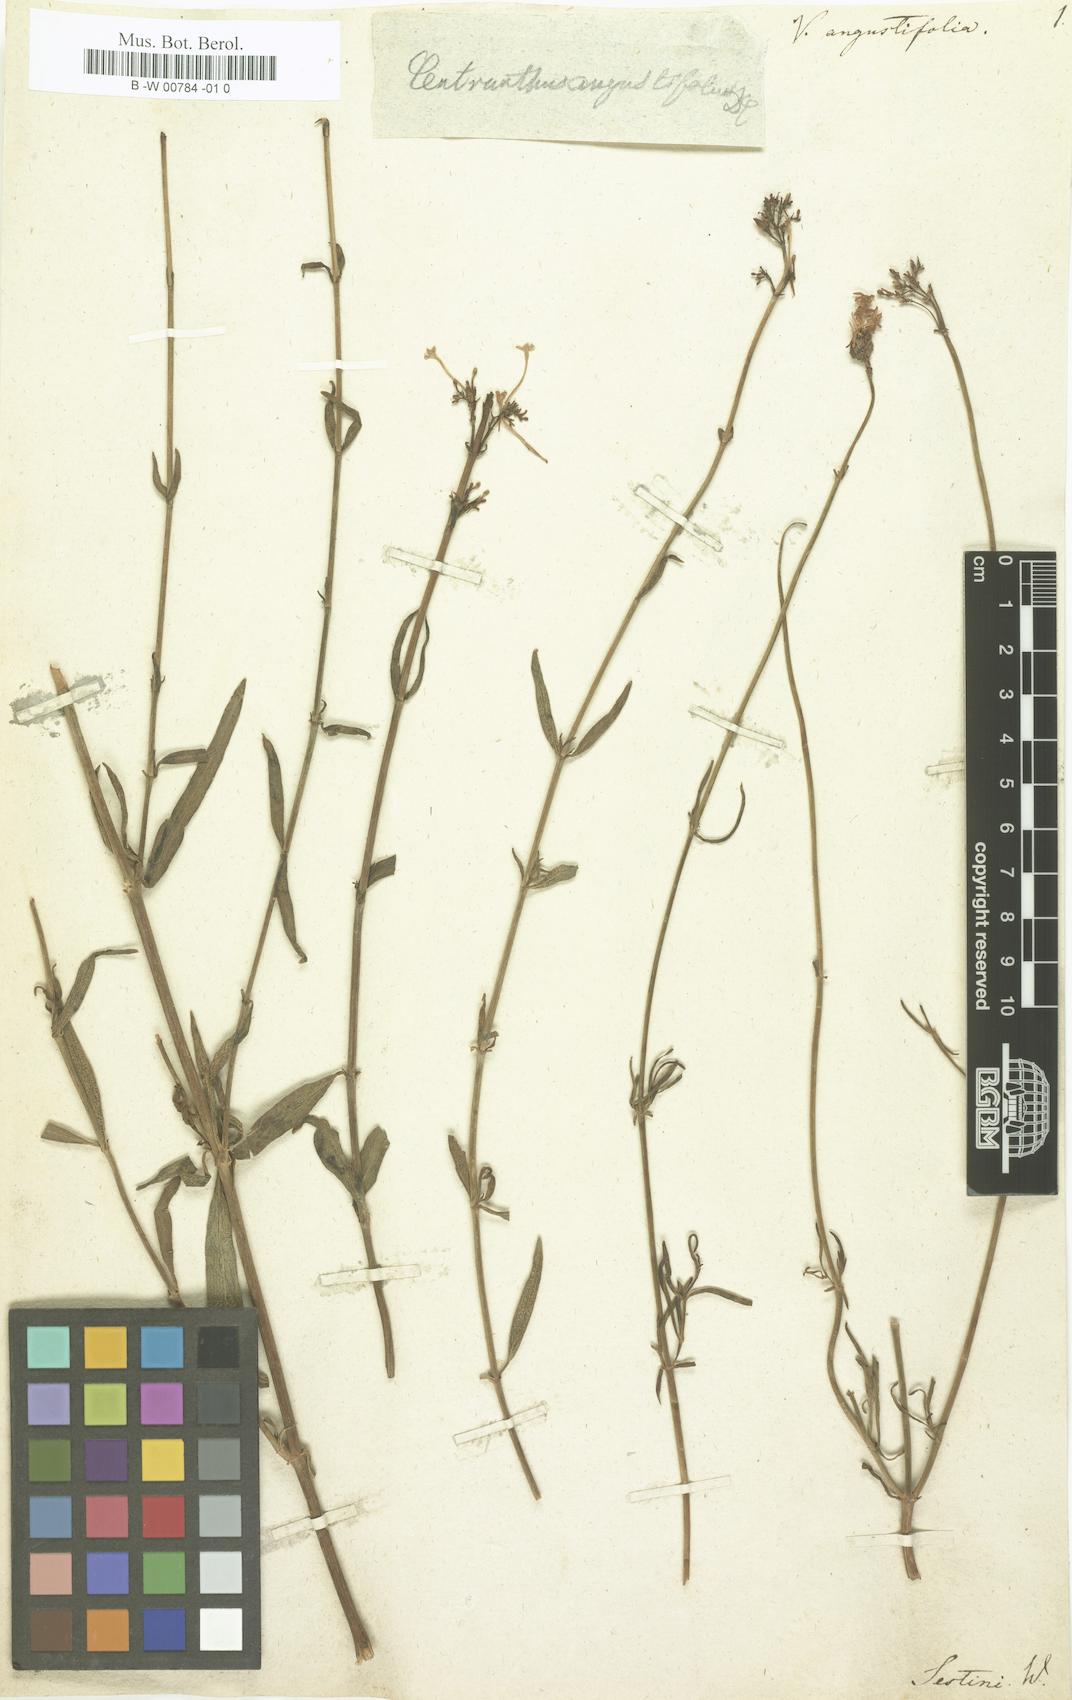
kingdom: Plantae
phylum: Tracheophyta
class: Magnoliopsida
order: Dipsacales
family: Caprifoliaceae
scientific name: Caprifoliaceae
